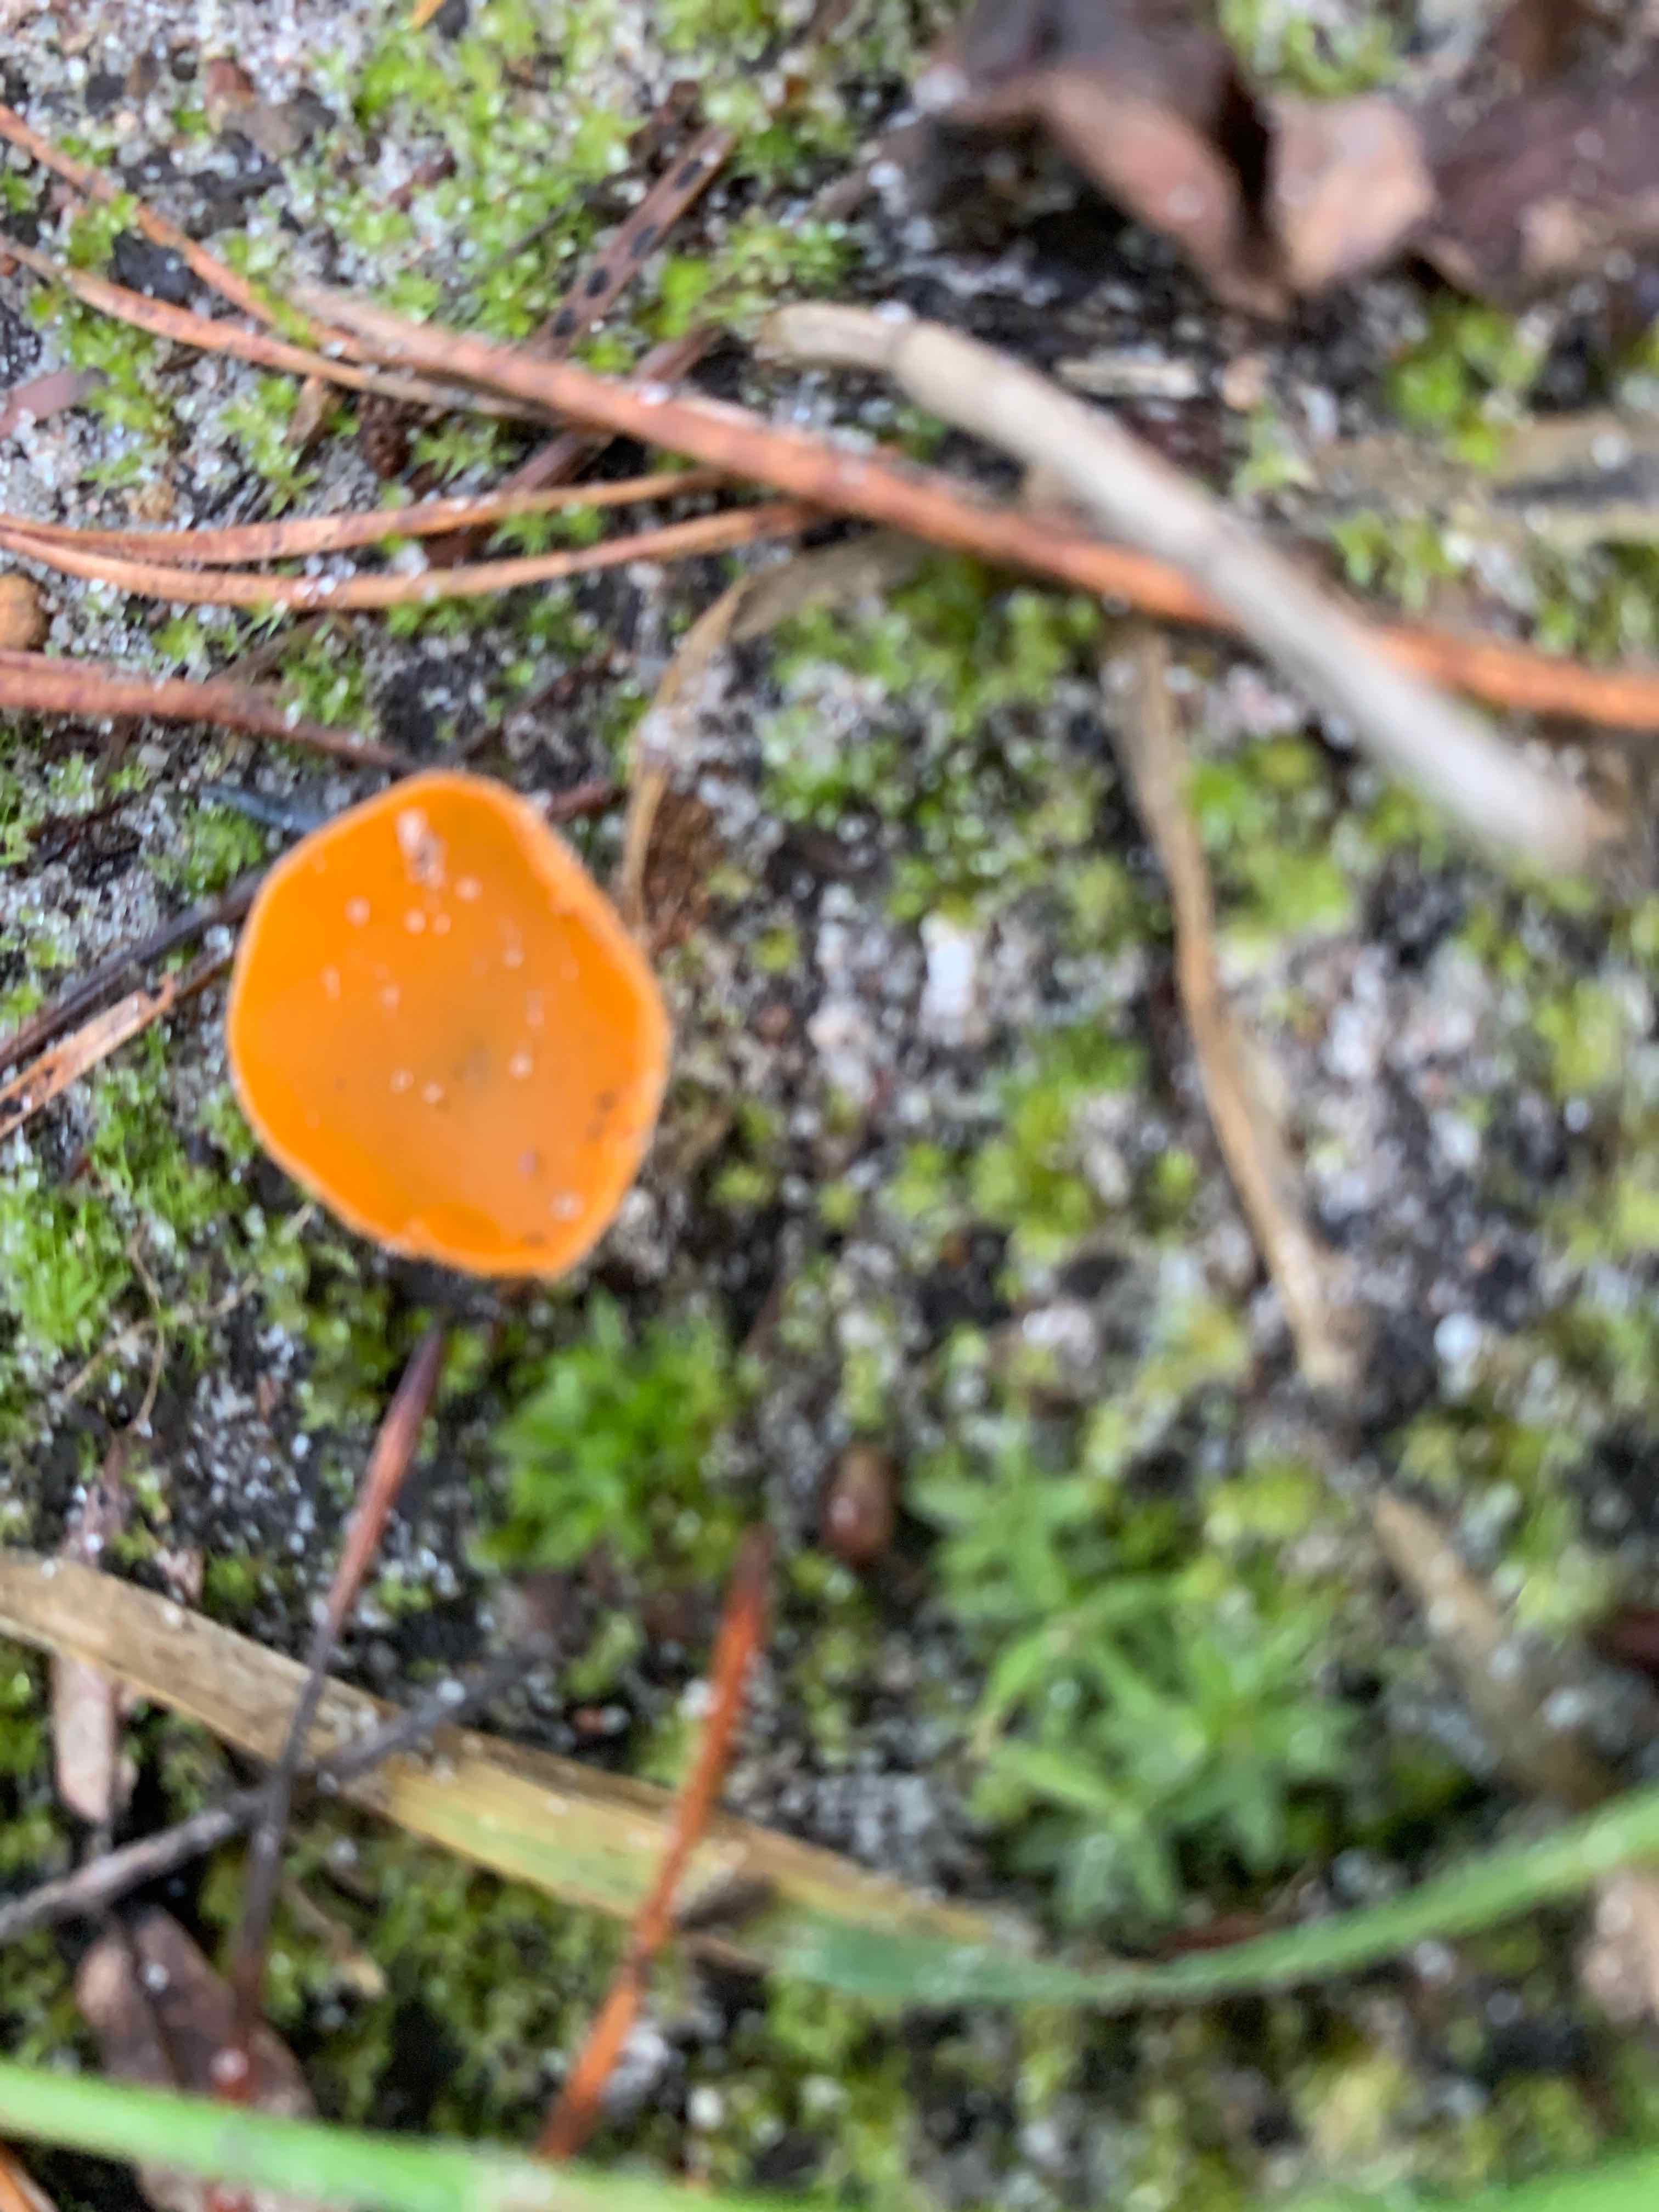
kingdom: Fungi
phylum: Ascomycota
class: Pezizomycetes
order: Pezizales
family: Pyronemataceae
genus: Aleuria
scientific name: Aleuria aurantia
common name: almindelig orangebæger
